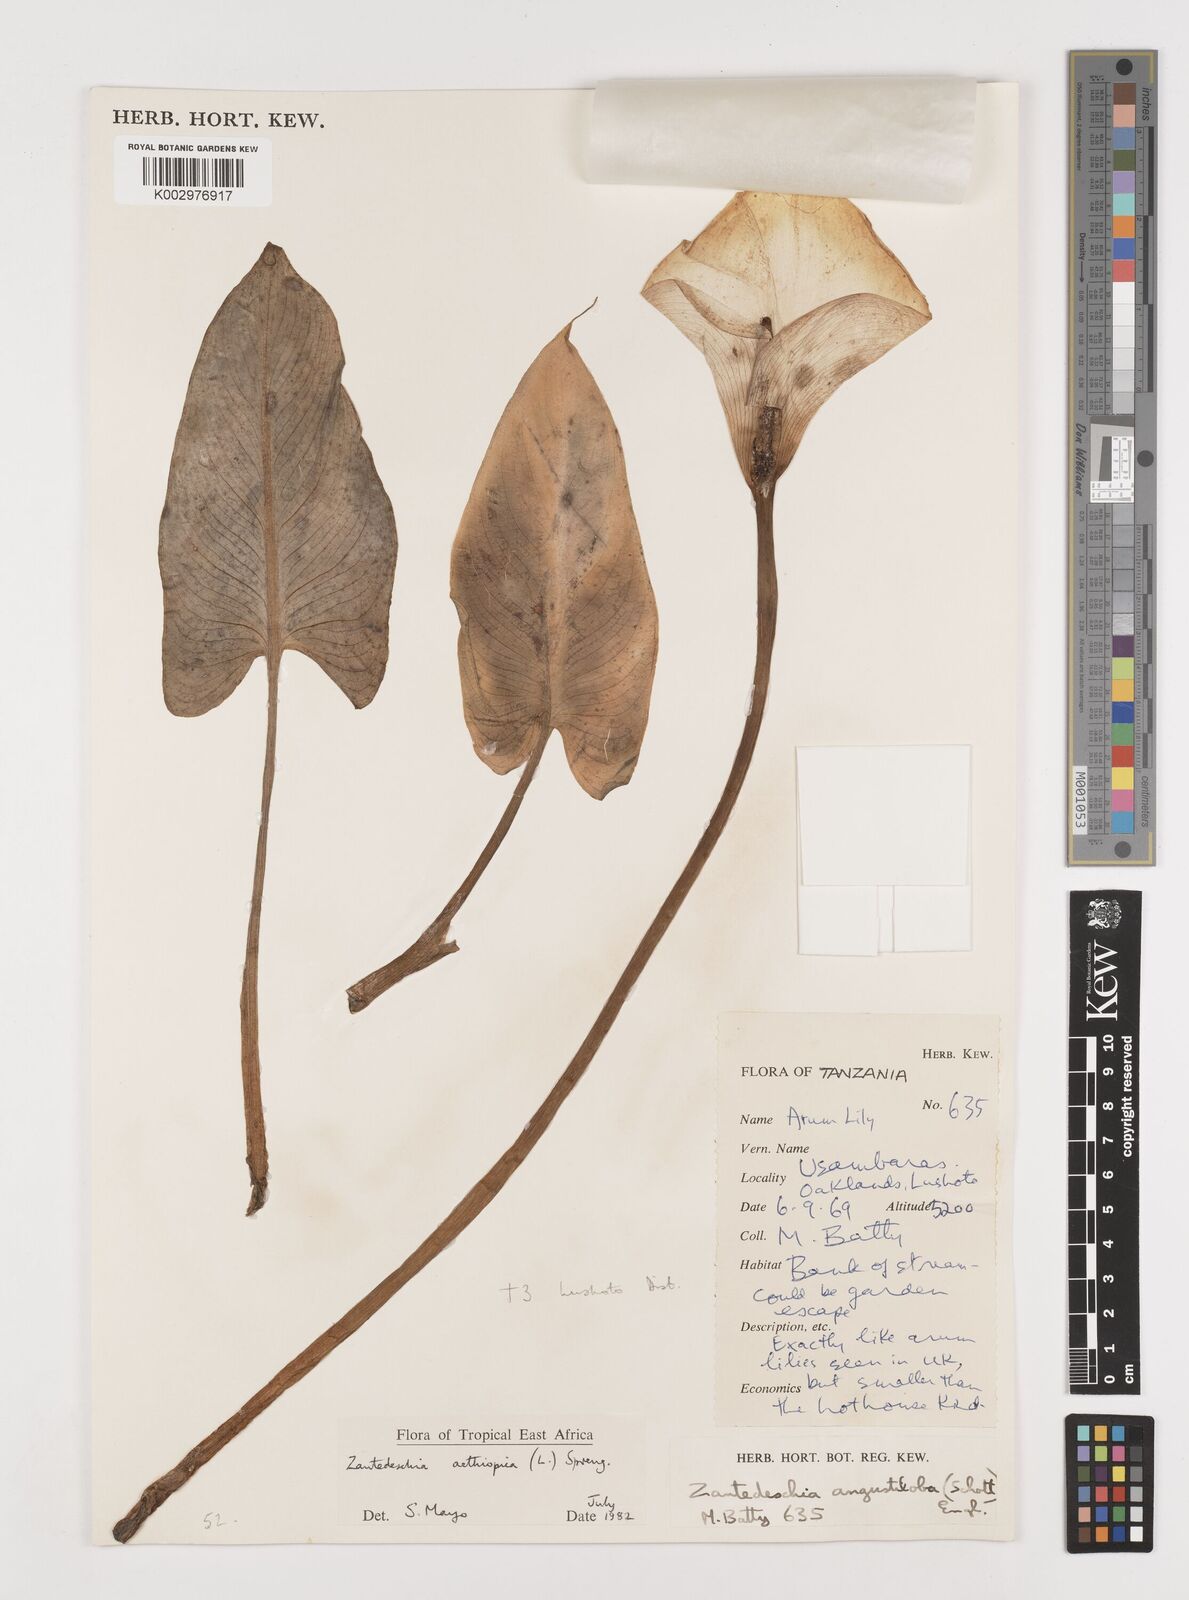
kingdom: Plantae
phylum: Tracheophyta
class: Liliopsida
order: Alismatales
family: Araceae
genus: Zantedeschia
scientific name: Zantedeschia aethiopica
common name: Altar-lily
